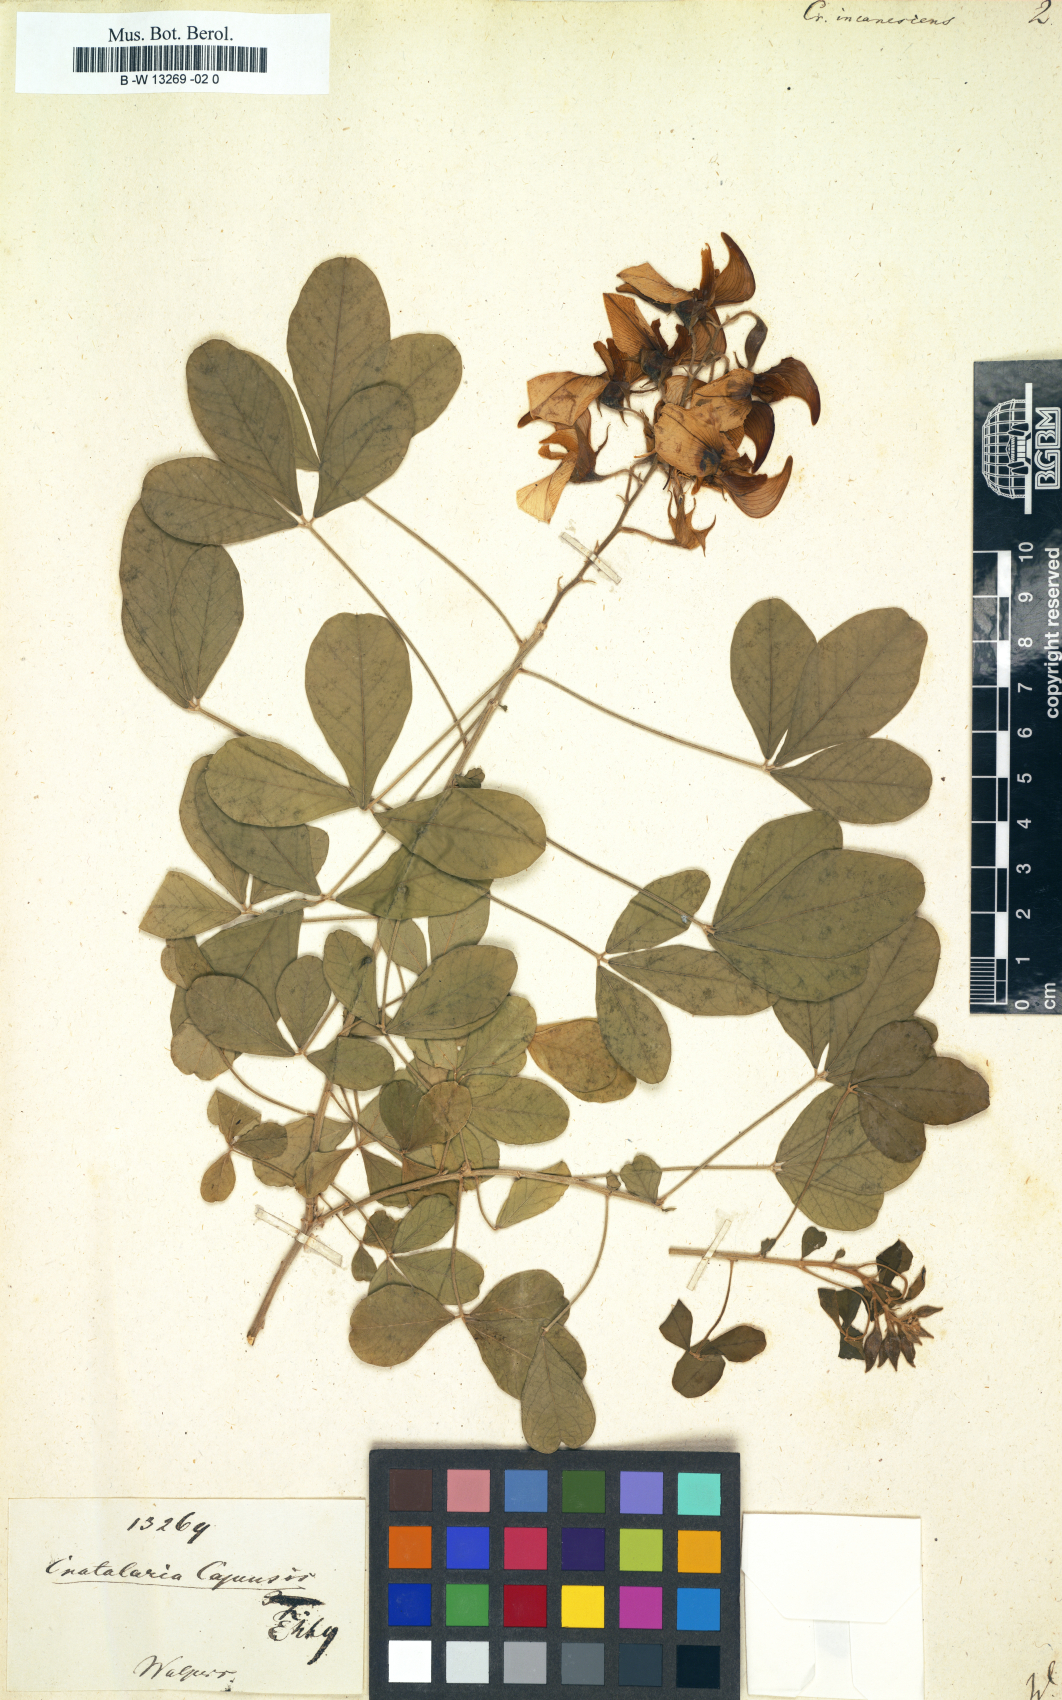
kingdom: Plantae
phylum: Tracheophyta
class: Magnoliopsida
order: Fabales
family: Fabaceae
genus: Crotalaria
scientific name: Crotalaria capensis
